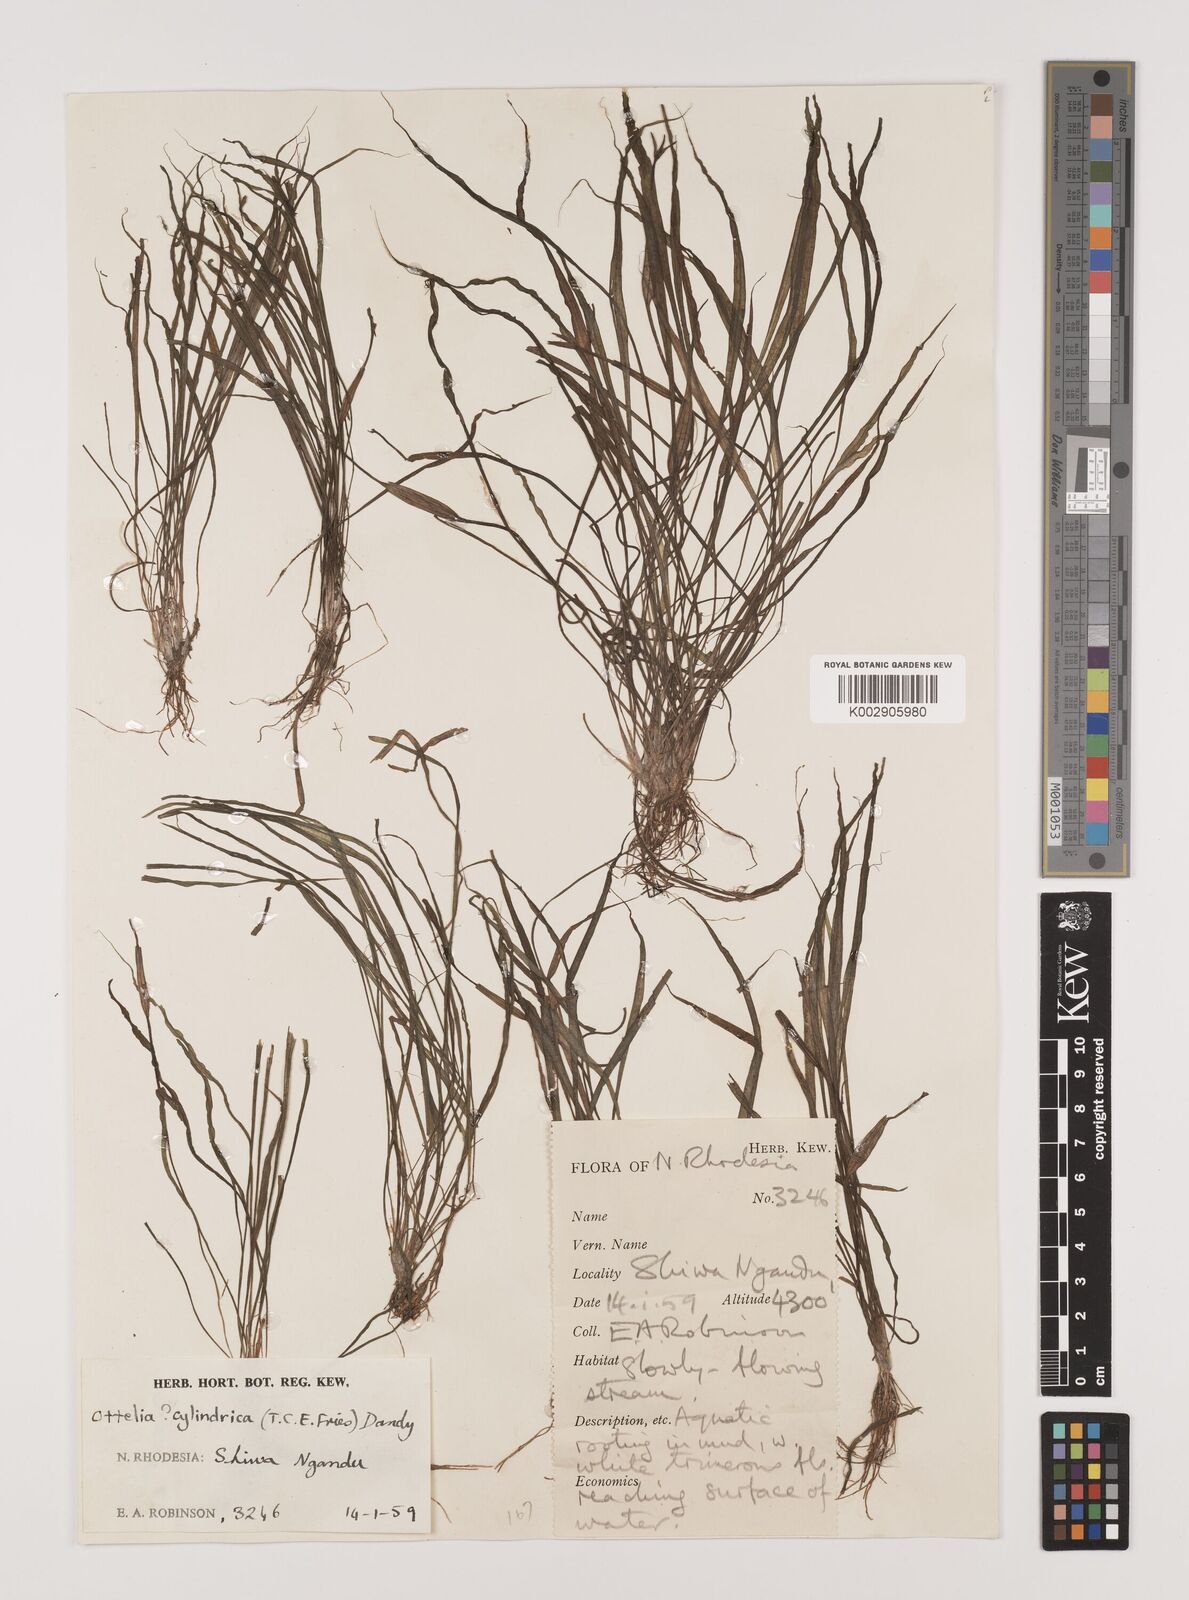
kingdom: Plantae
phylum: Tracheophyta
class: Liliopsida
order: Alismatales
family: Hydrocharitaceae
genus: Ottelia
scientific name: Ottelia cylindrica
